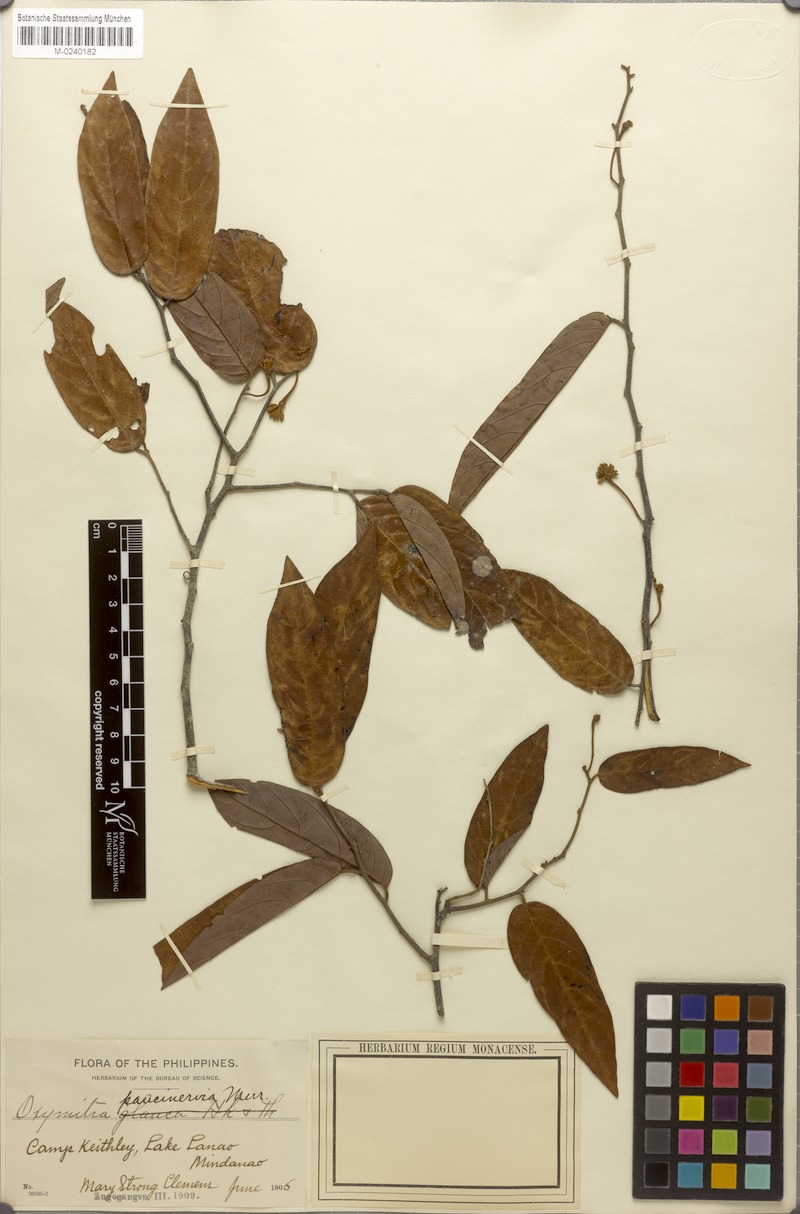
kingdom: Plantae
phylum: Tracheophyta
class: Magnoliopsida
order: Magnoliales
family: Annonaceae
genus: Meiogyne
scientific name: Meiogyne virgata
